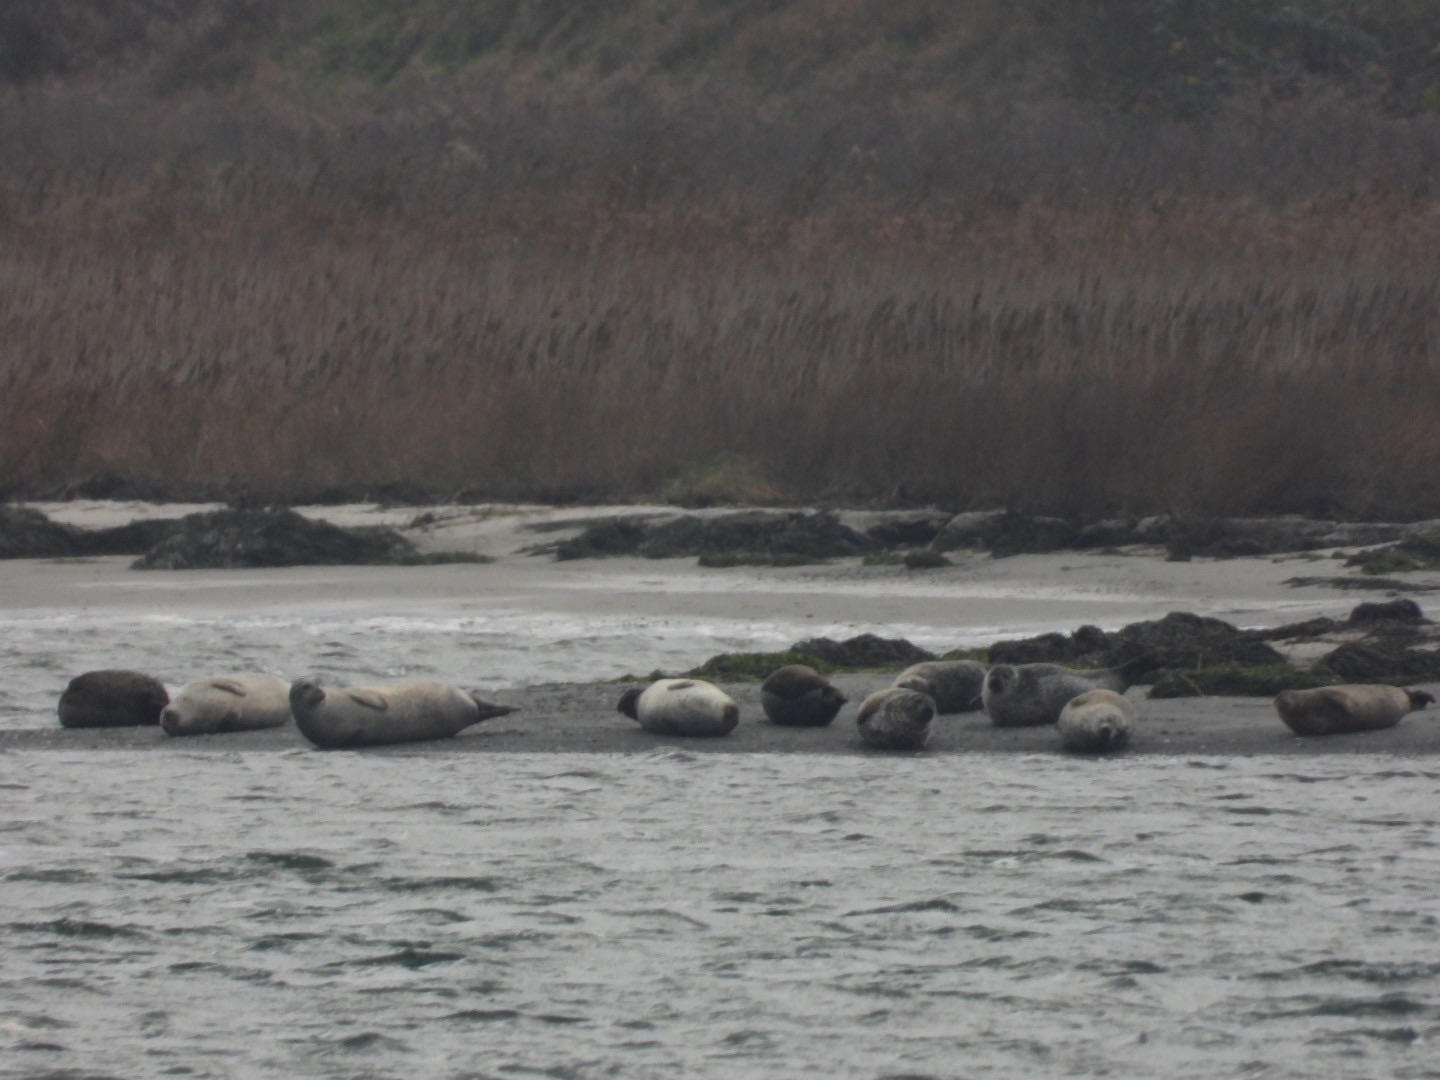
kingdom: Animalia
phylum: Chordata
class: Mammalia
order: Carnivora
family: Phocidae
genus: Phoca
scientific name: Phoca vitulina
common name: Spættet sæl
